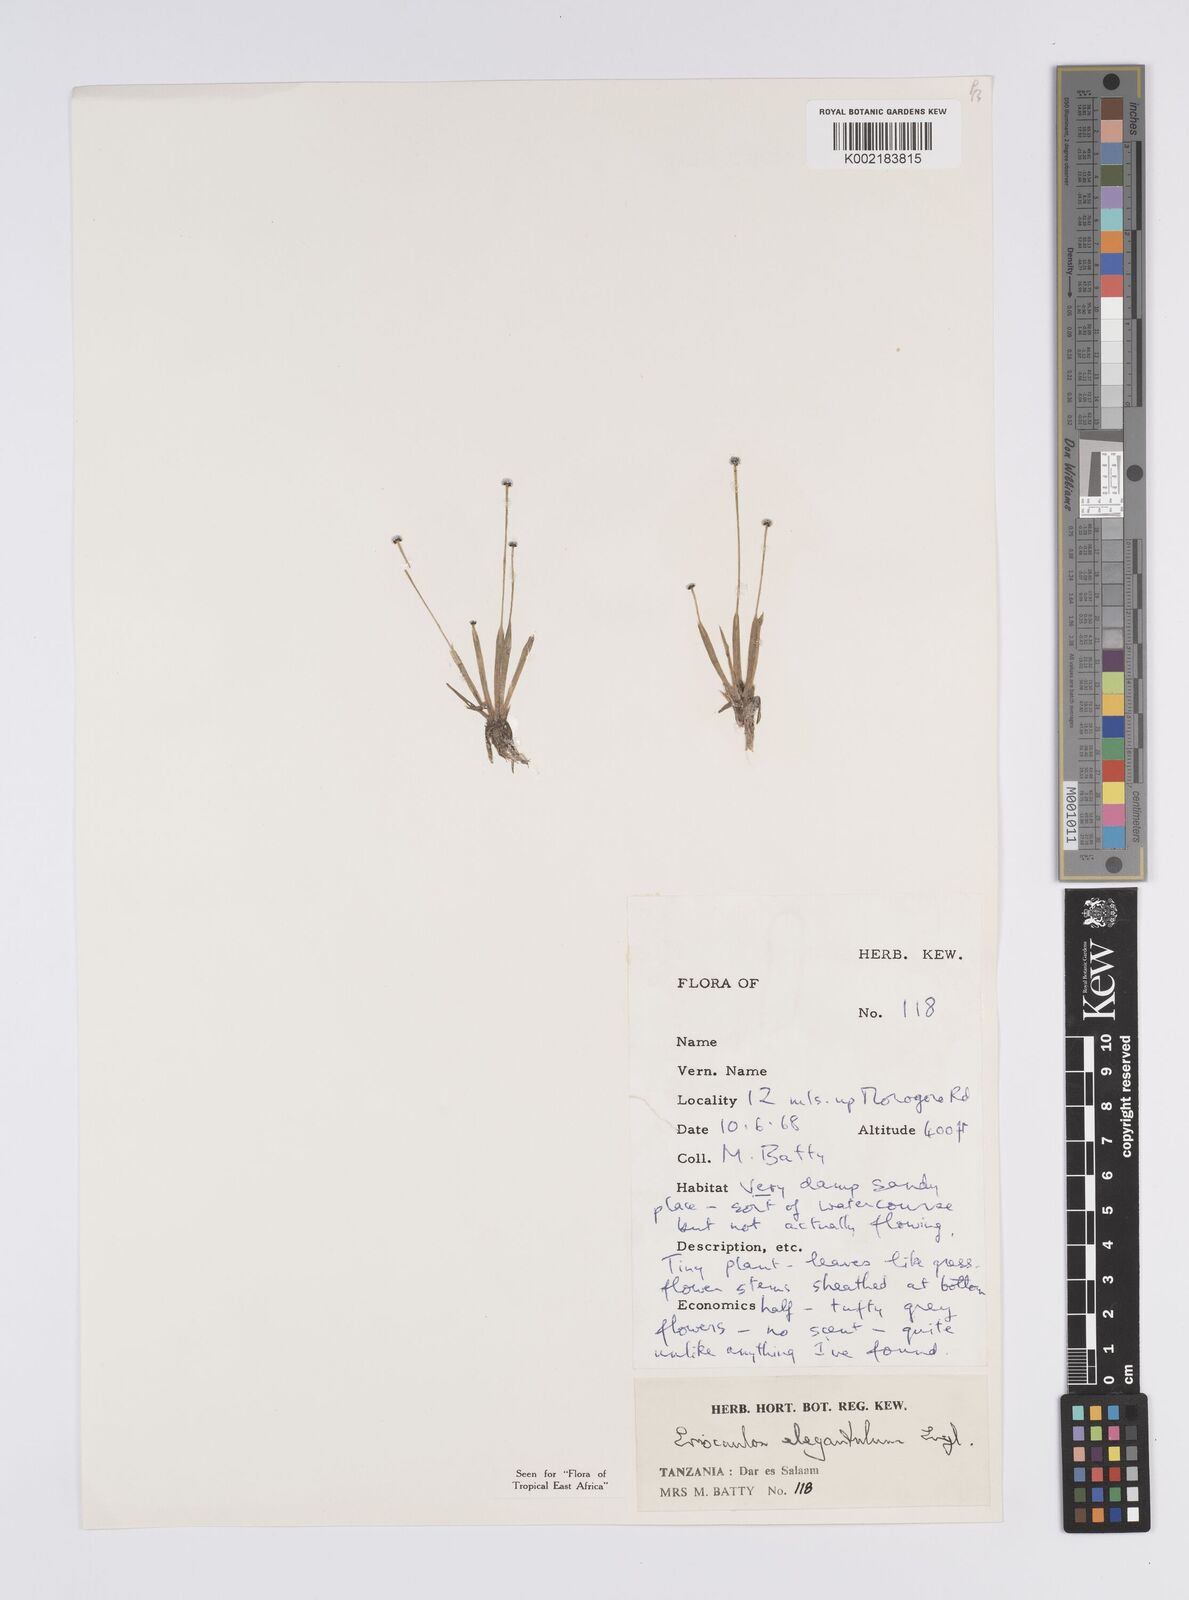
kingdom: Plantae
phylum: Tracheophyta
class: Liliopsida
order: Poales
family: Eriocaulaceae
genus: Eriocaulon
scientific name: Eriocaulon elegantulum
